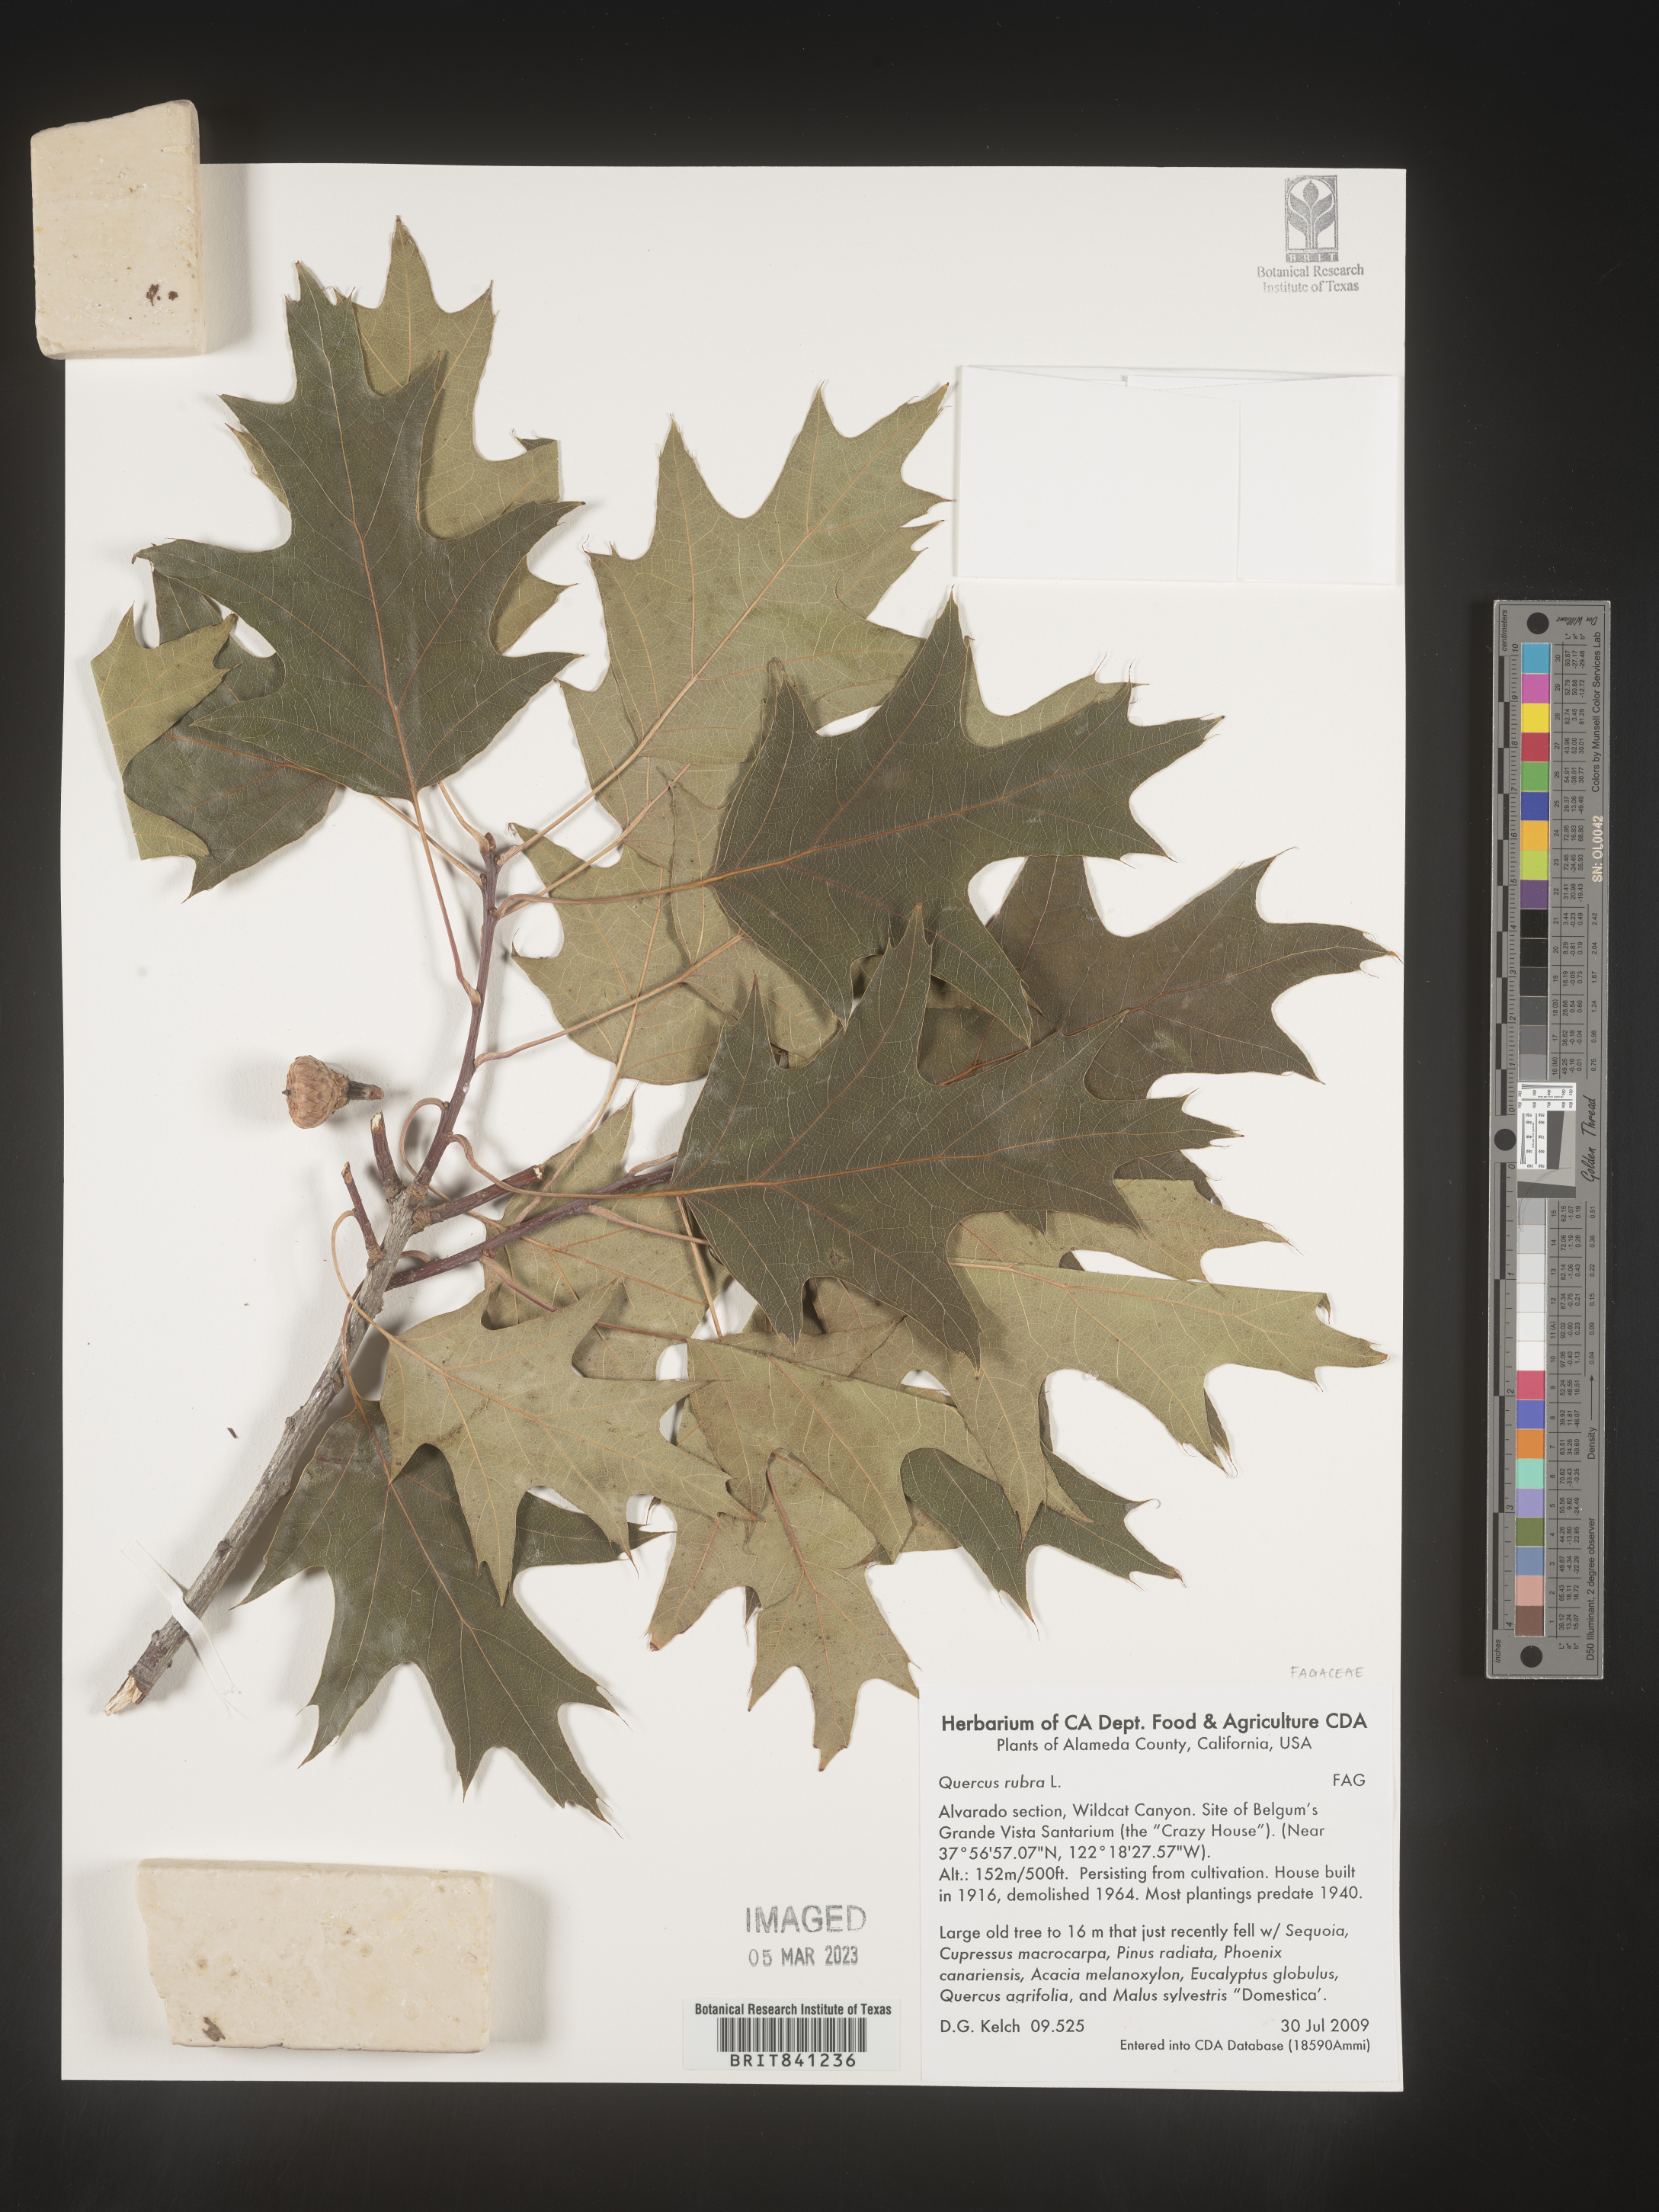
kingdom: Plantae
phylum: Tracheophyta
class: Magnoliopsida
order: Fagales
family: Fagaceae
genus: Quercus
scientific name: Quercus rubra
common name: Red oak
